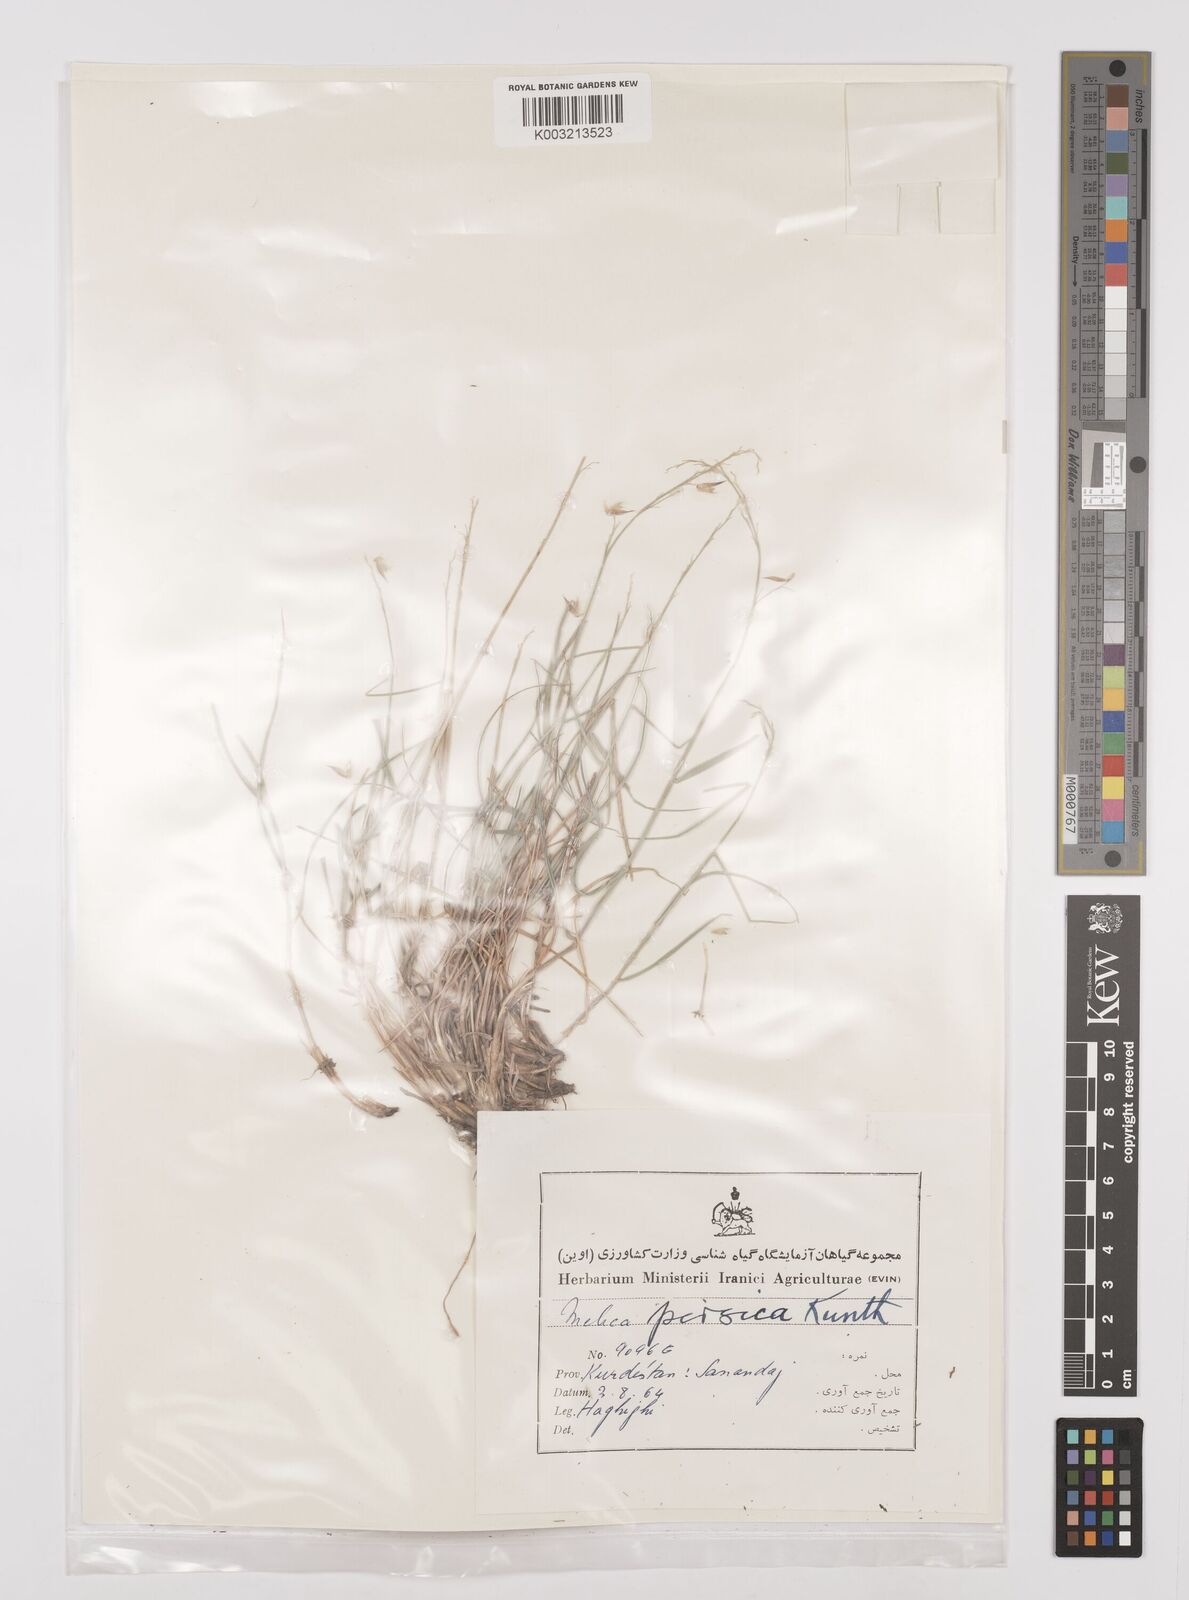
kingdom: Plantae
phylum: Tracheophyta
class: Liliopsida
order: Poales
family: Poaceae
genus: Melica
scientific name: Melica persica
